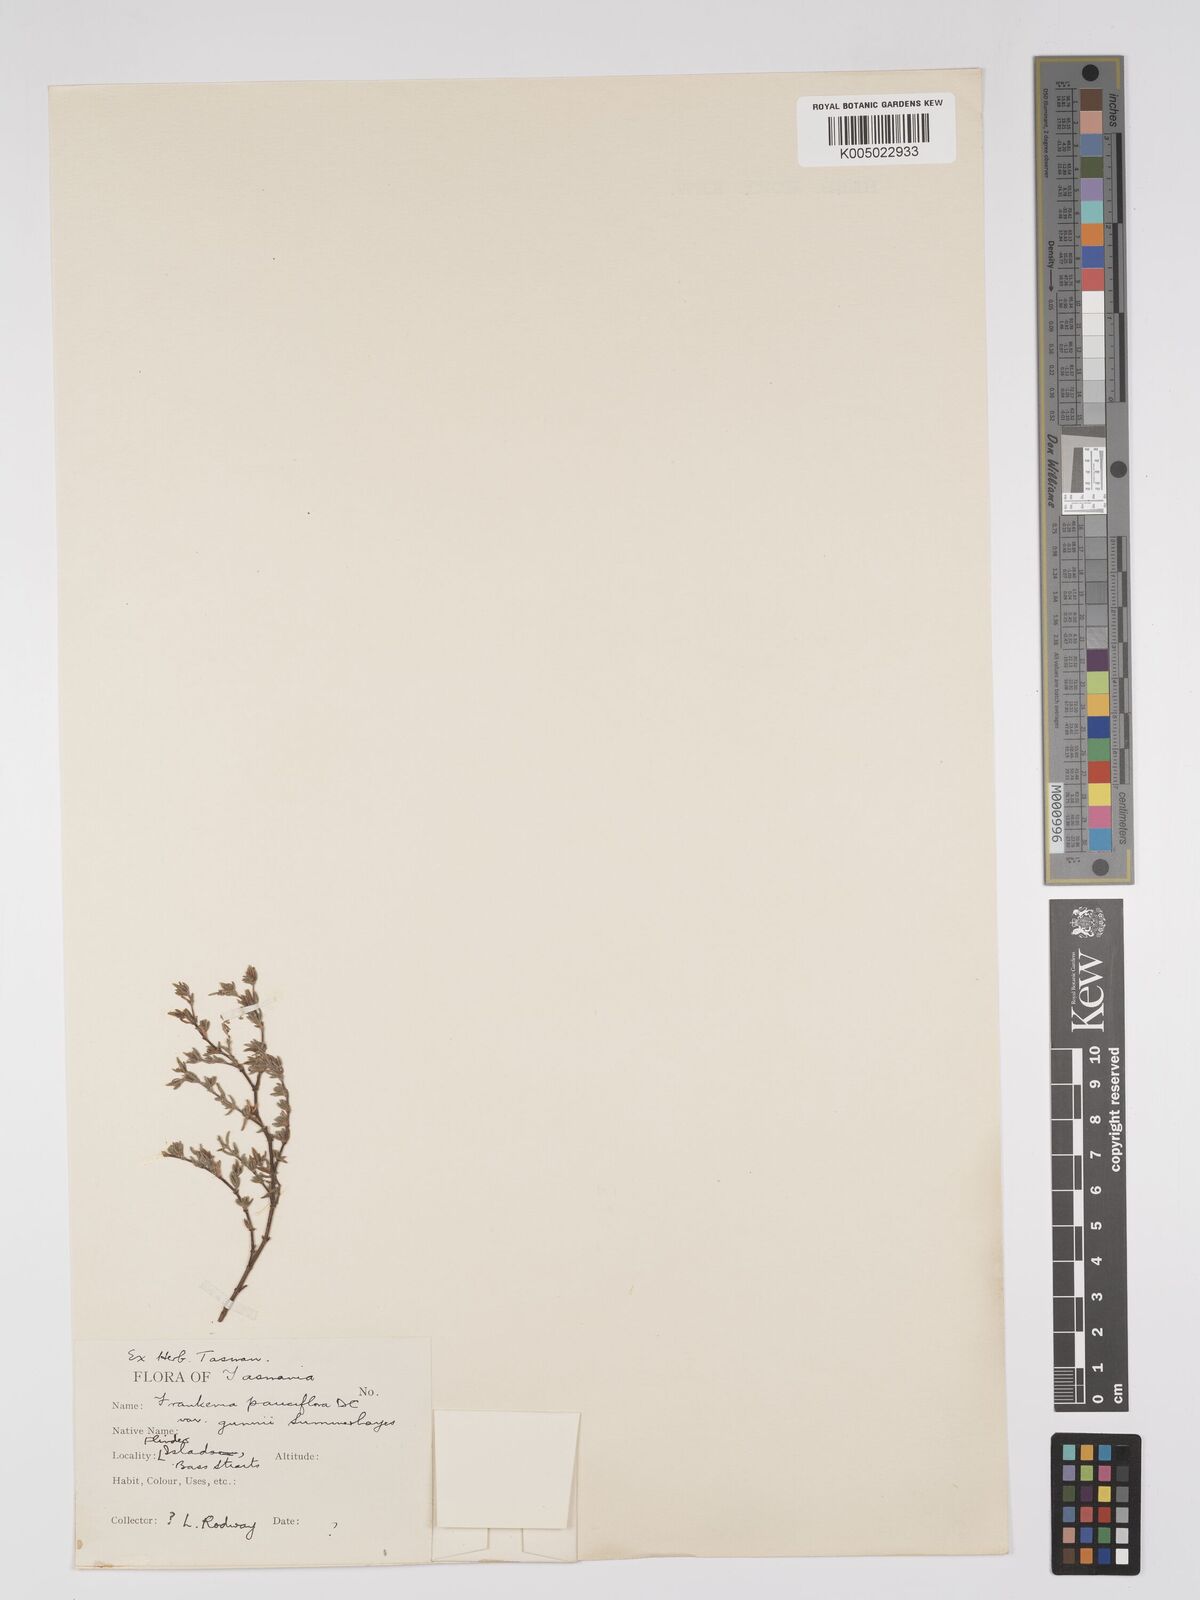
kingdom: Plantae
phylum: Tracheophyta
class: Magnoliopsida
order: Caryophyllales
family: Frankeniaceae
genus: Frankenia
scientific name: Frankenia pauciflora
